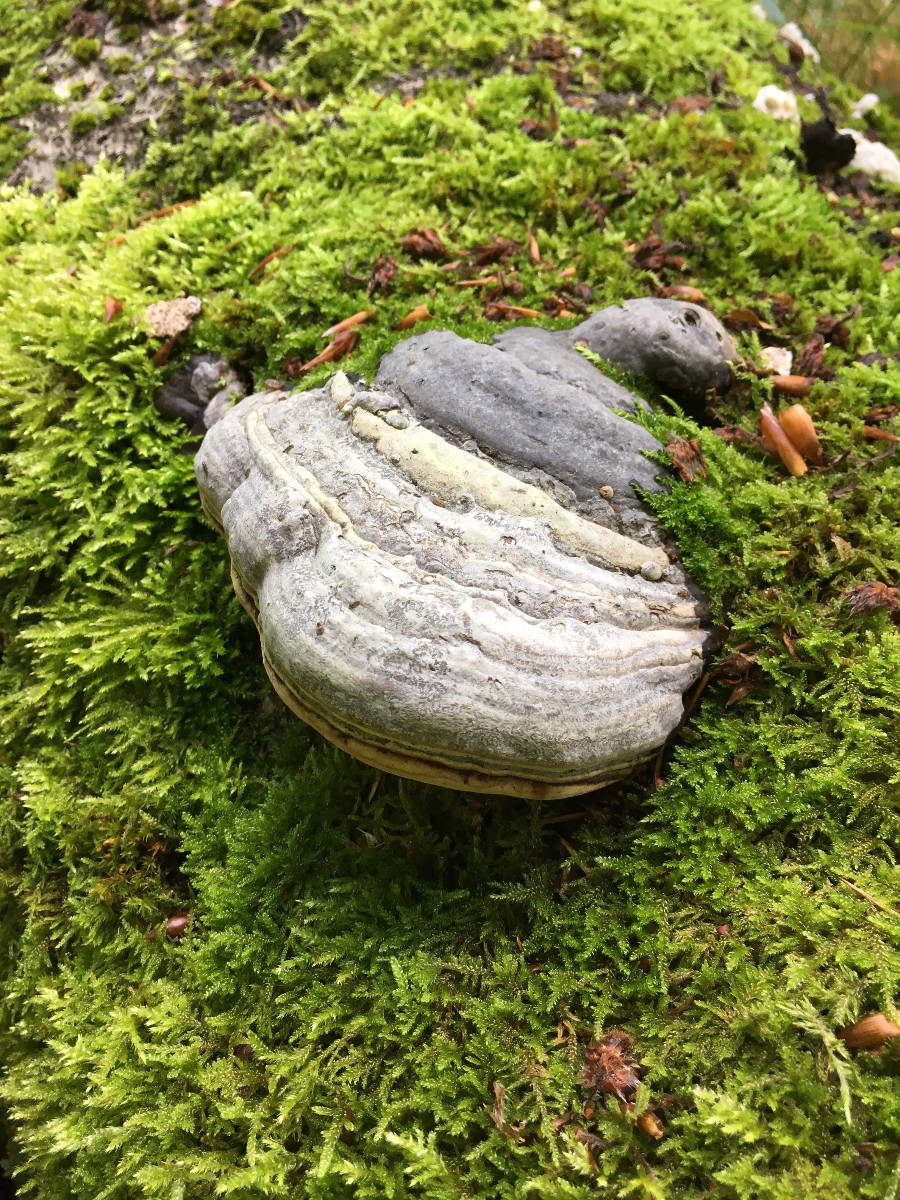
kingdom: Fungi
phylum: Basidiomycota
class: Agaricomycetes
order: Polyporales
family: Polyporaceae
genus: Fomes
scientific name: Fomes fomentarius
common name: tøndersvamp
